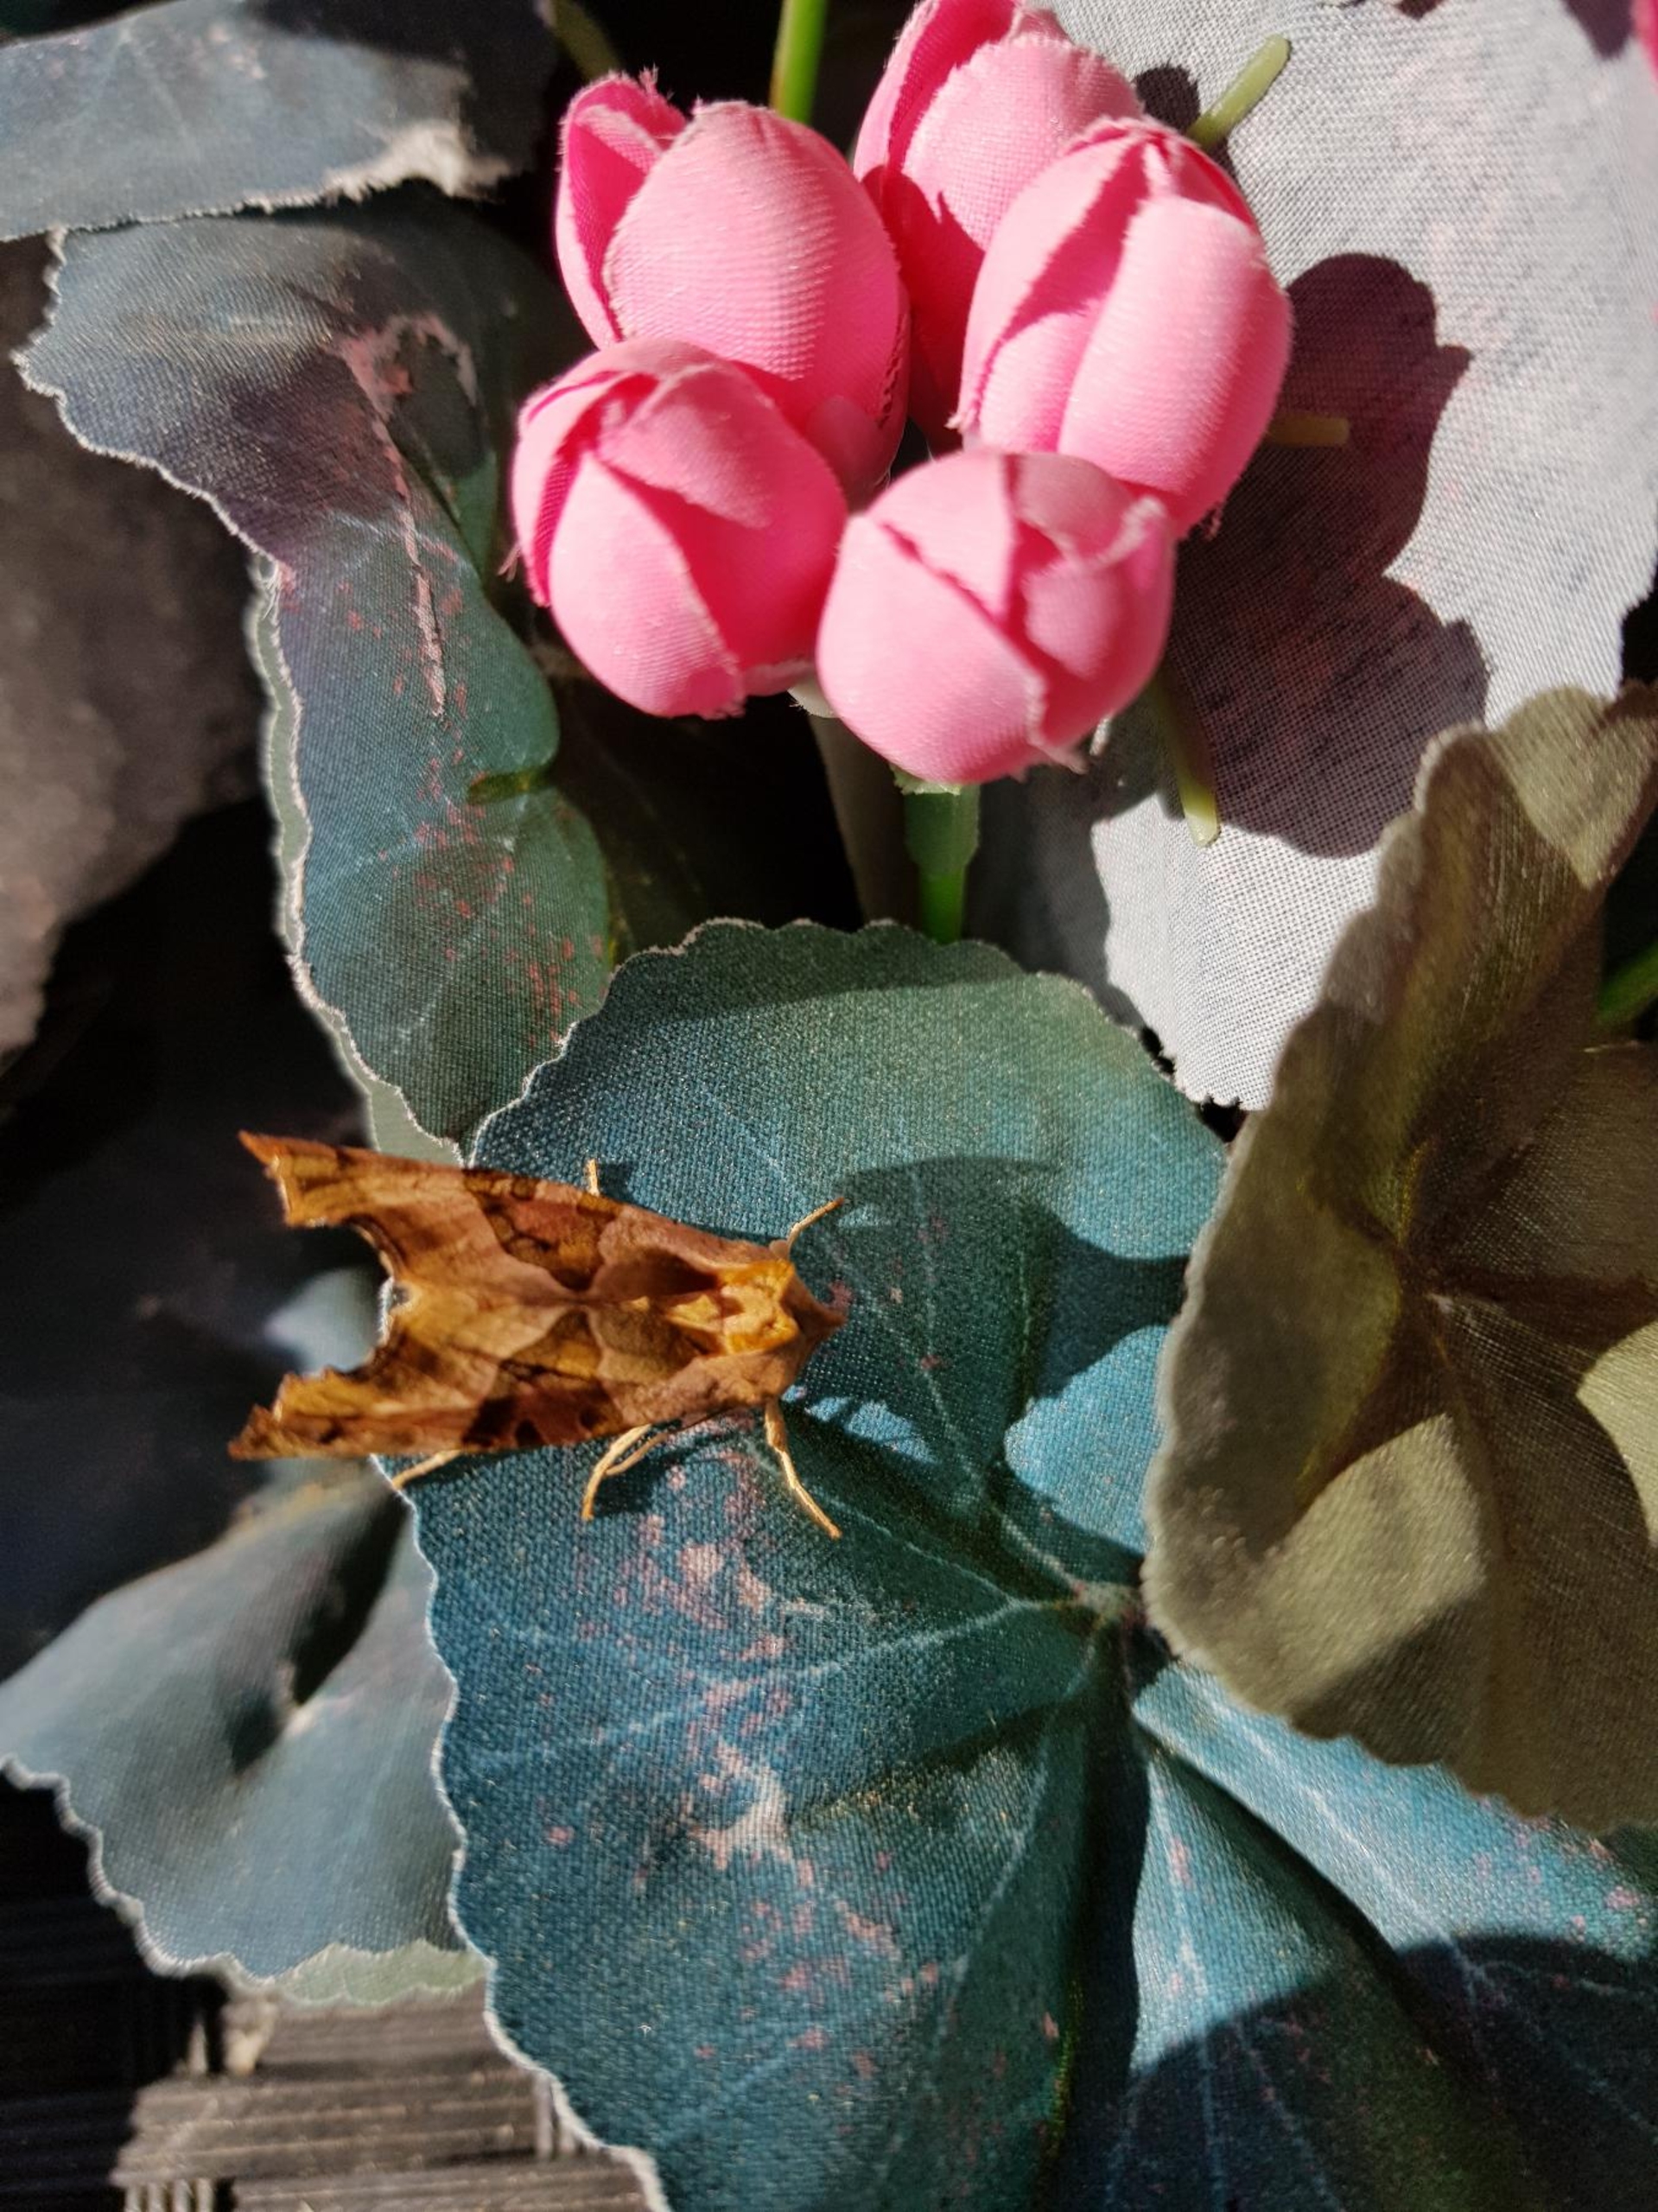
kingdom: Animalia
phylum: Arthropoda
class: Insecta
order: Lepidoptera
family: Noctuidae
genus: Phlogophora
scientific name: Phlogophora meticulosa
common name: Agatugle
